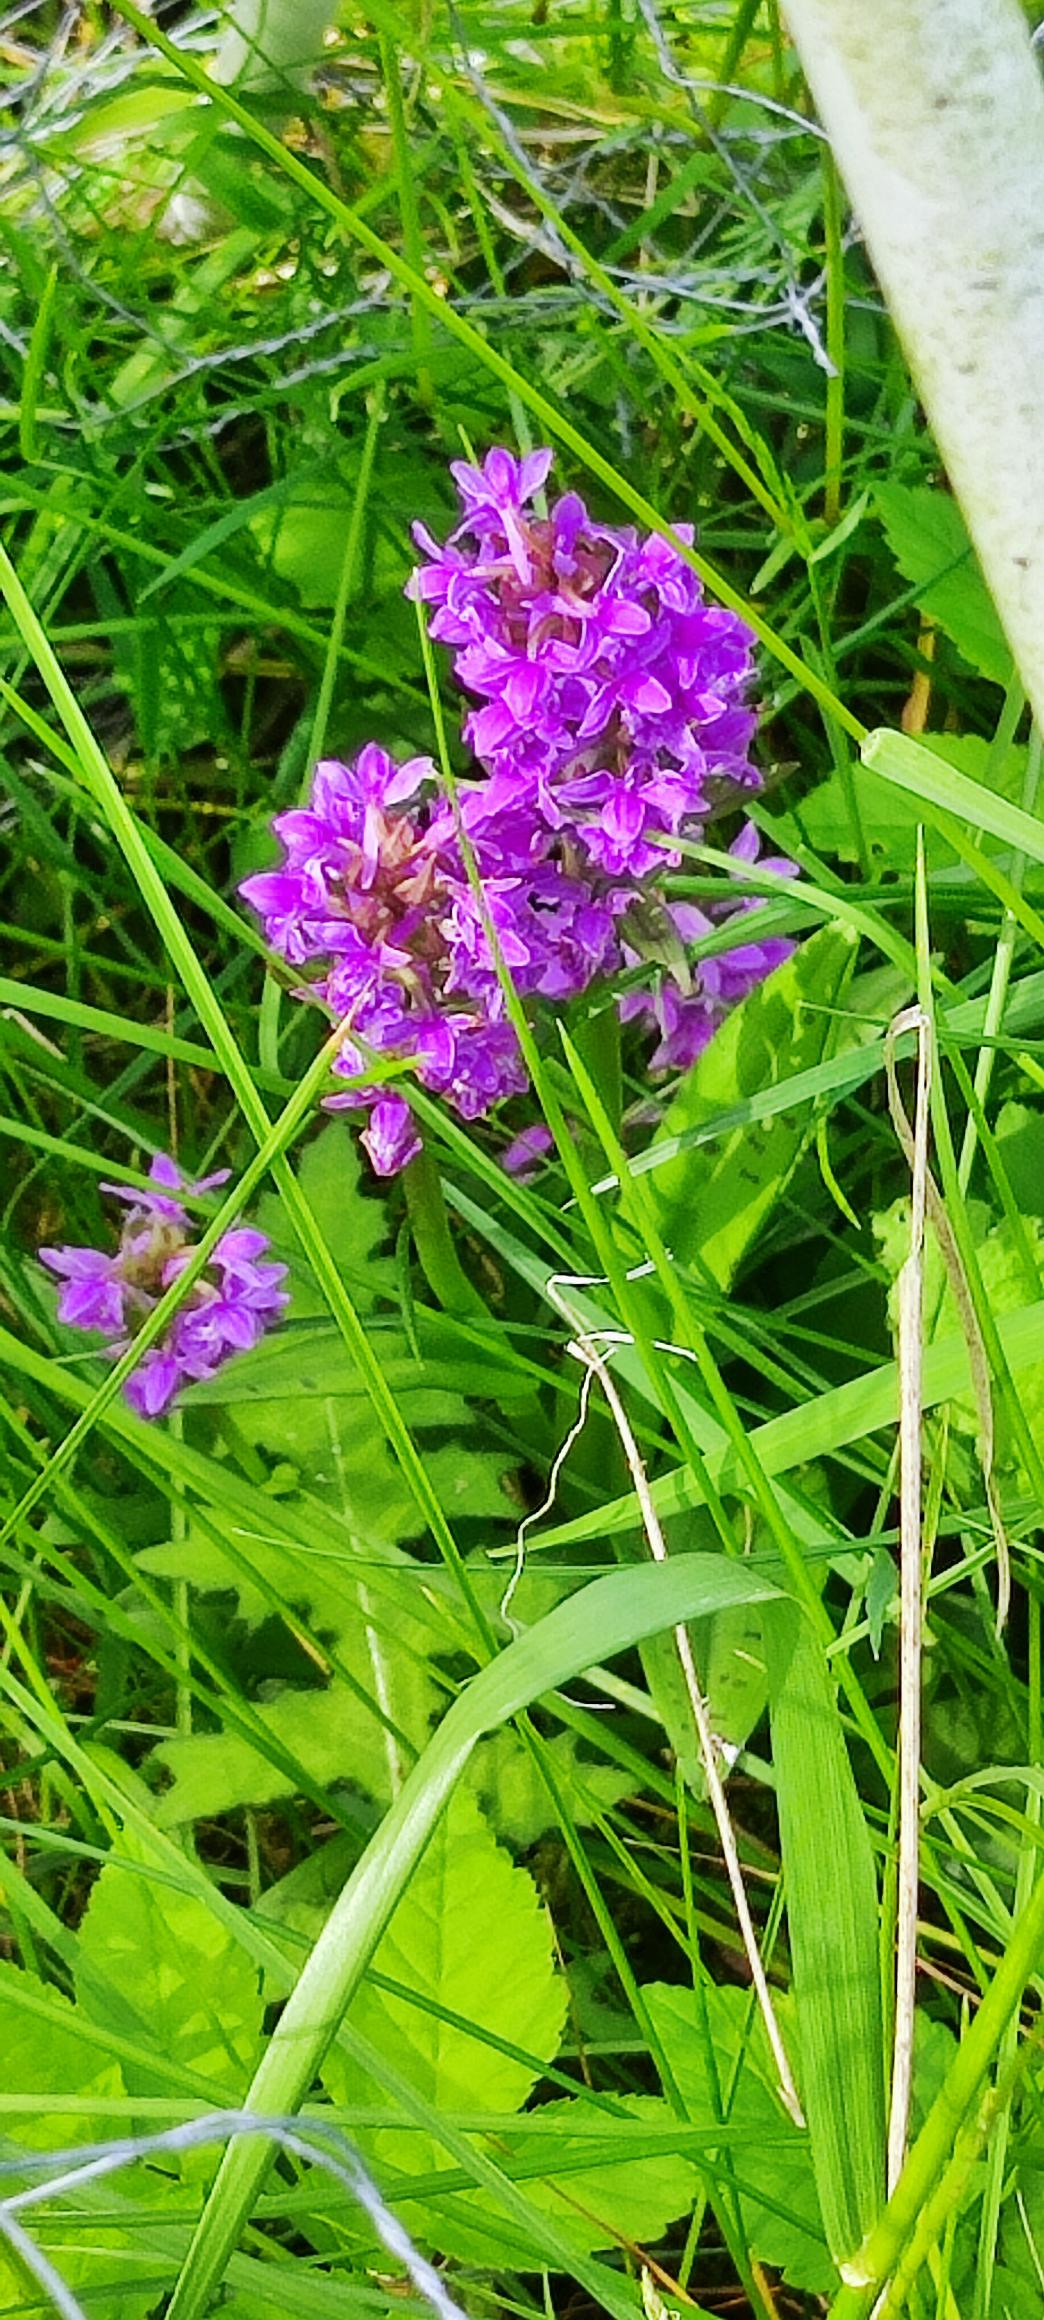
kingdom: Plantae
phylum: Tracheophyta
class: Liliopsida
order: Asparagales
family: Orchidaceae
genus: Dactylorhiza
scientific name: Dactylorhiza majalis
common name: Maj-gøgeurt
